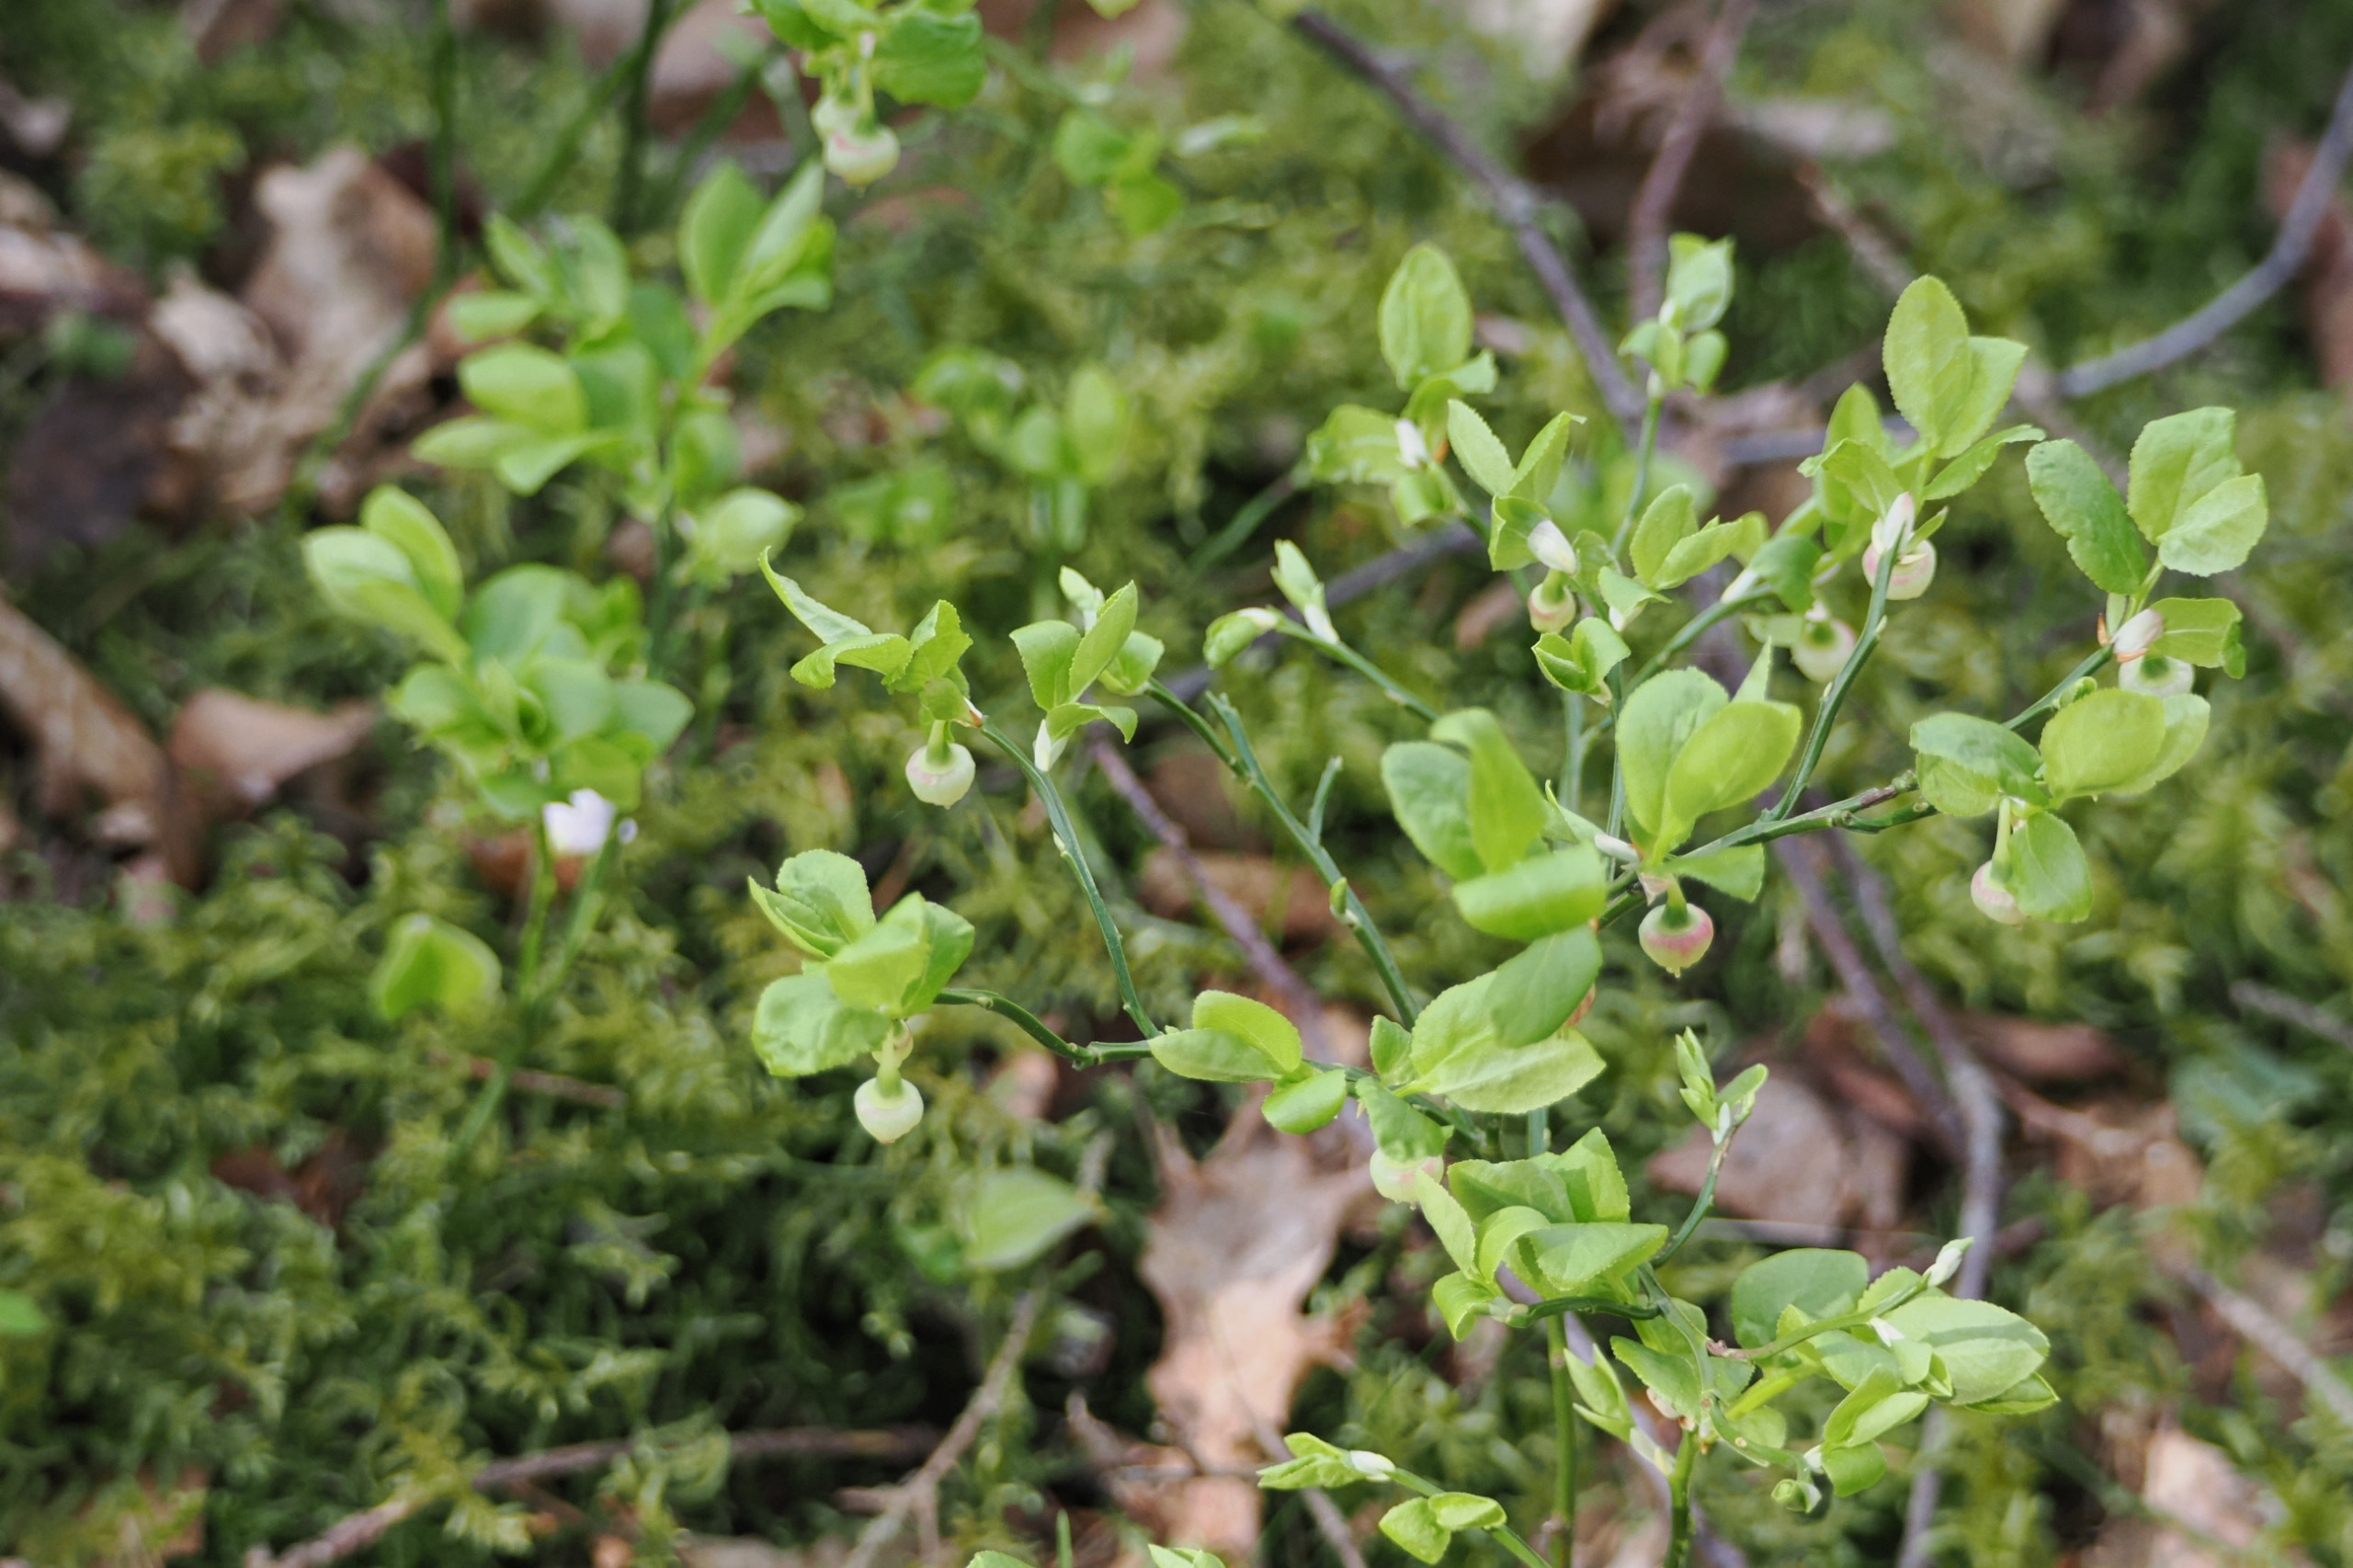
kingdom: Plantae
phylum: Tracheophyta
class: Magnoliopsida
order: Ericales
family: Ericaceae
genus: Vaccinium
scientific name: Vaccinium myrtillus
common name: Blåbær
